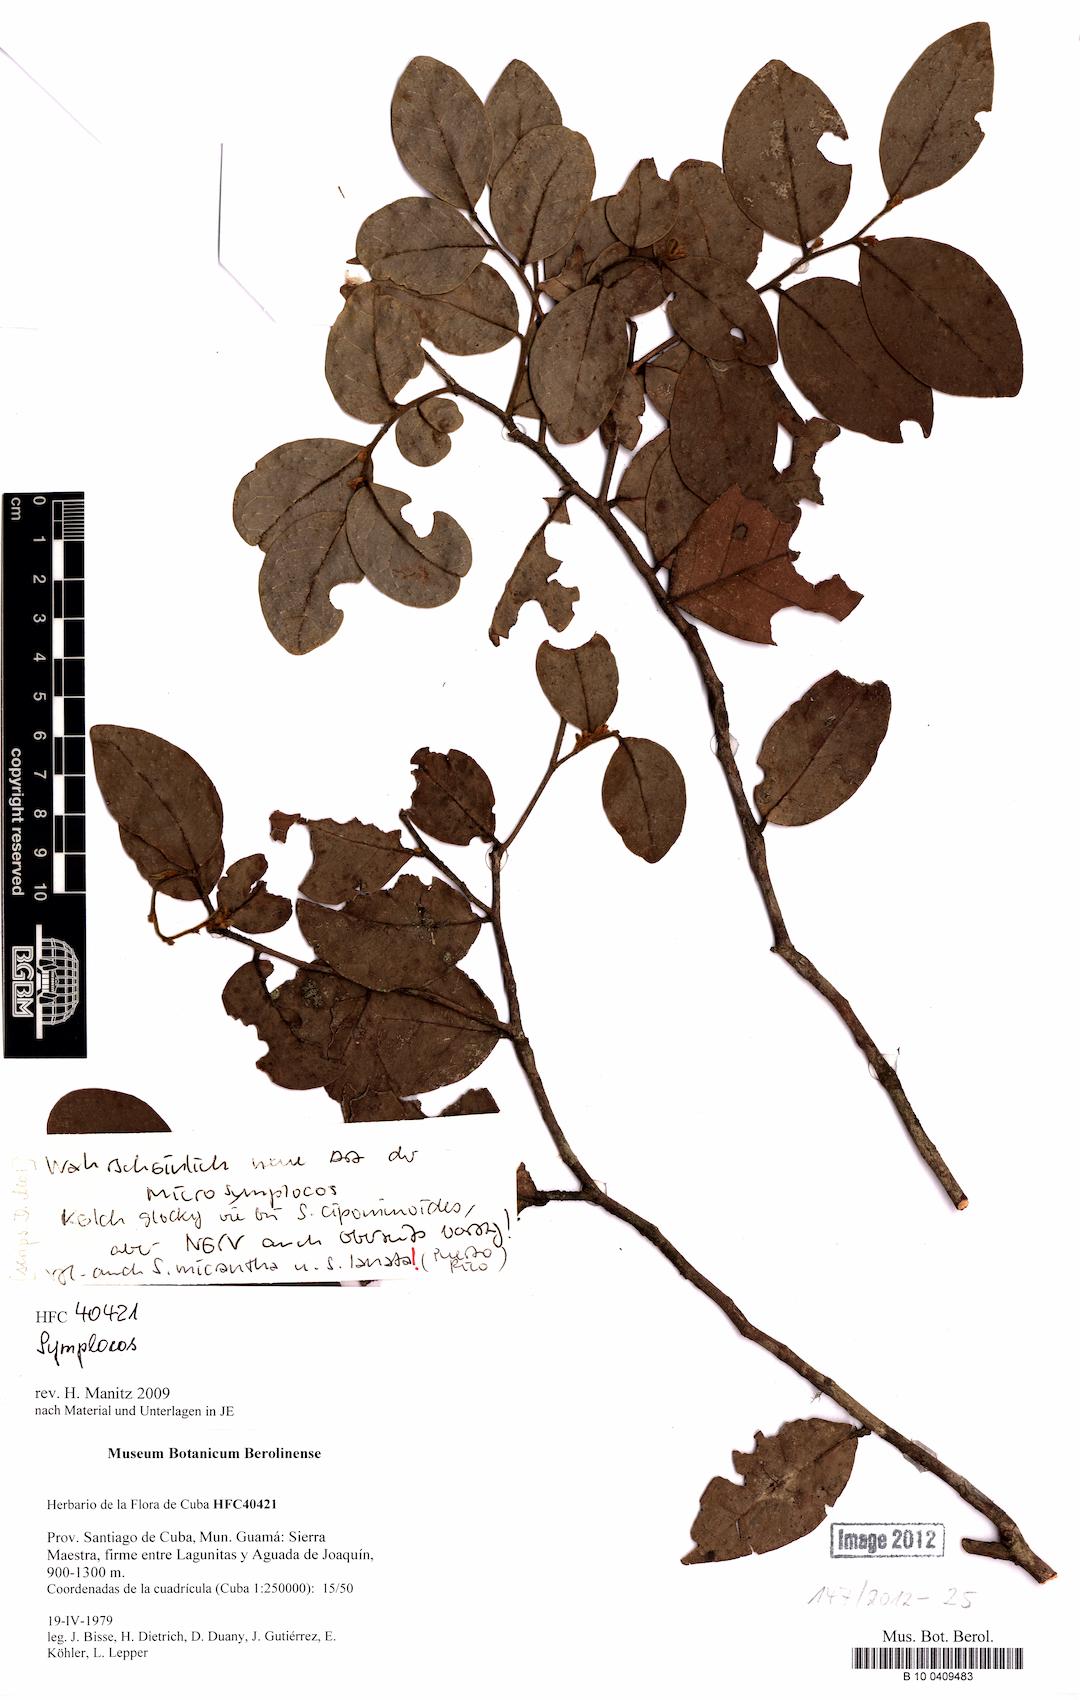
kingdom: Plantae
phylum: Tracheophyta
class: Magnoliopsida
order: Ericales
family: Symplocaceae
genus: Symplocos
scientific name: Symplocos
